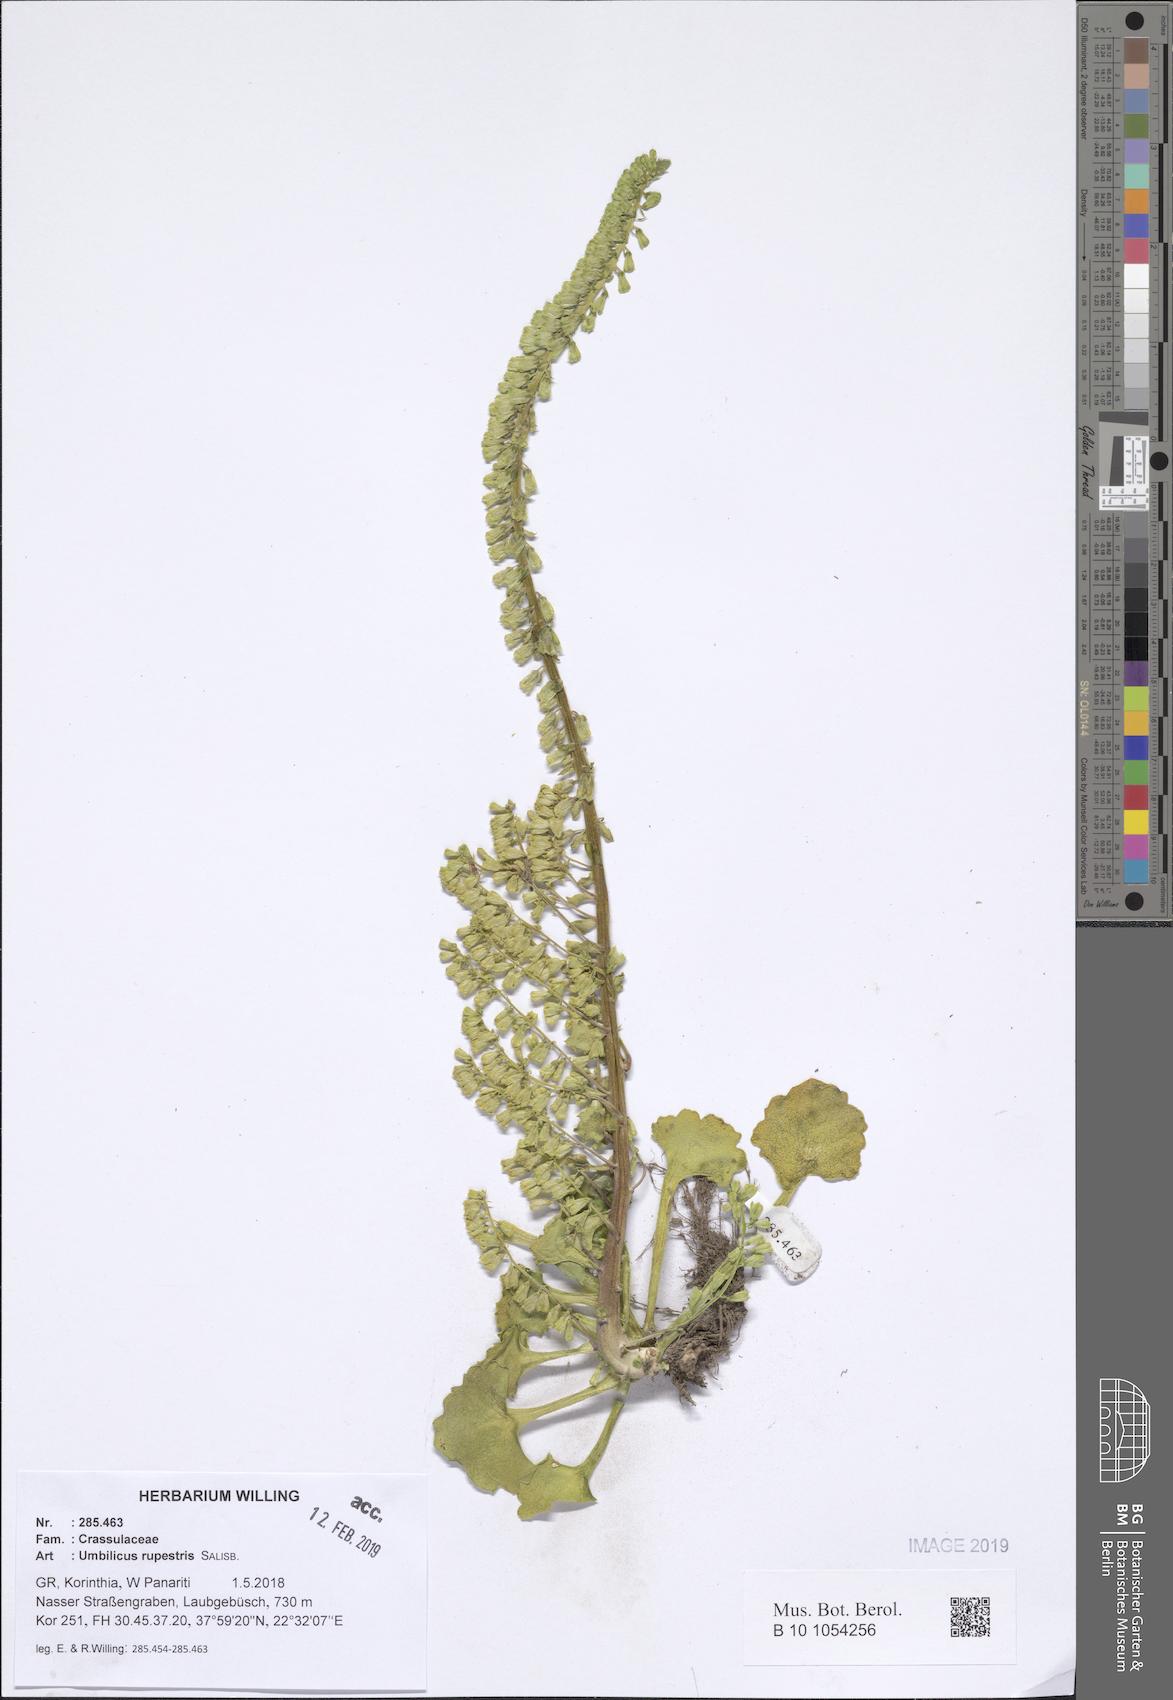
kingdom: Plantae
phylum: Tracheophyta
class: Magnoliopsida
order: Saxifragales
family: Crassulaceae
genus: Umbilicus
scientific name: Umbilicus rupestris
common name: Navelwort
